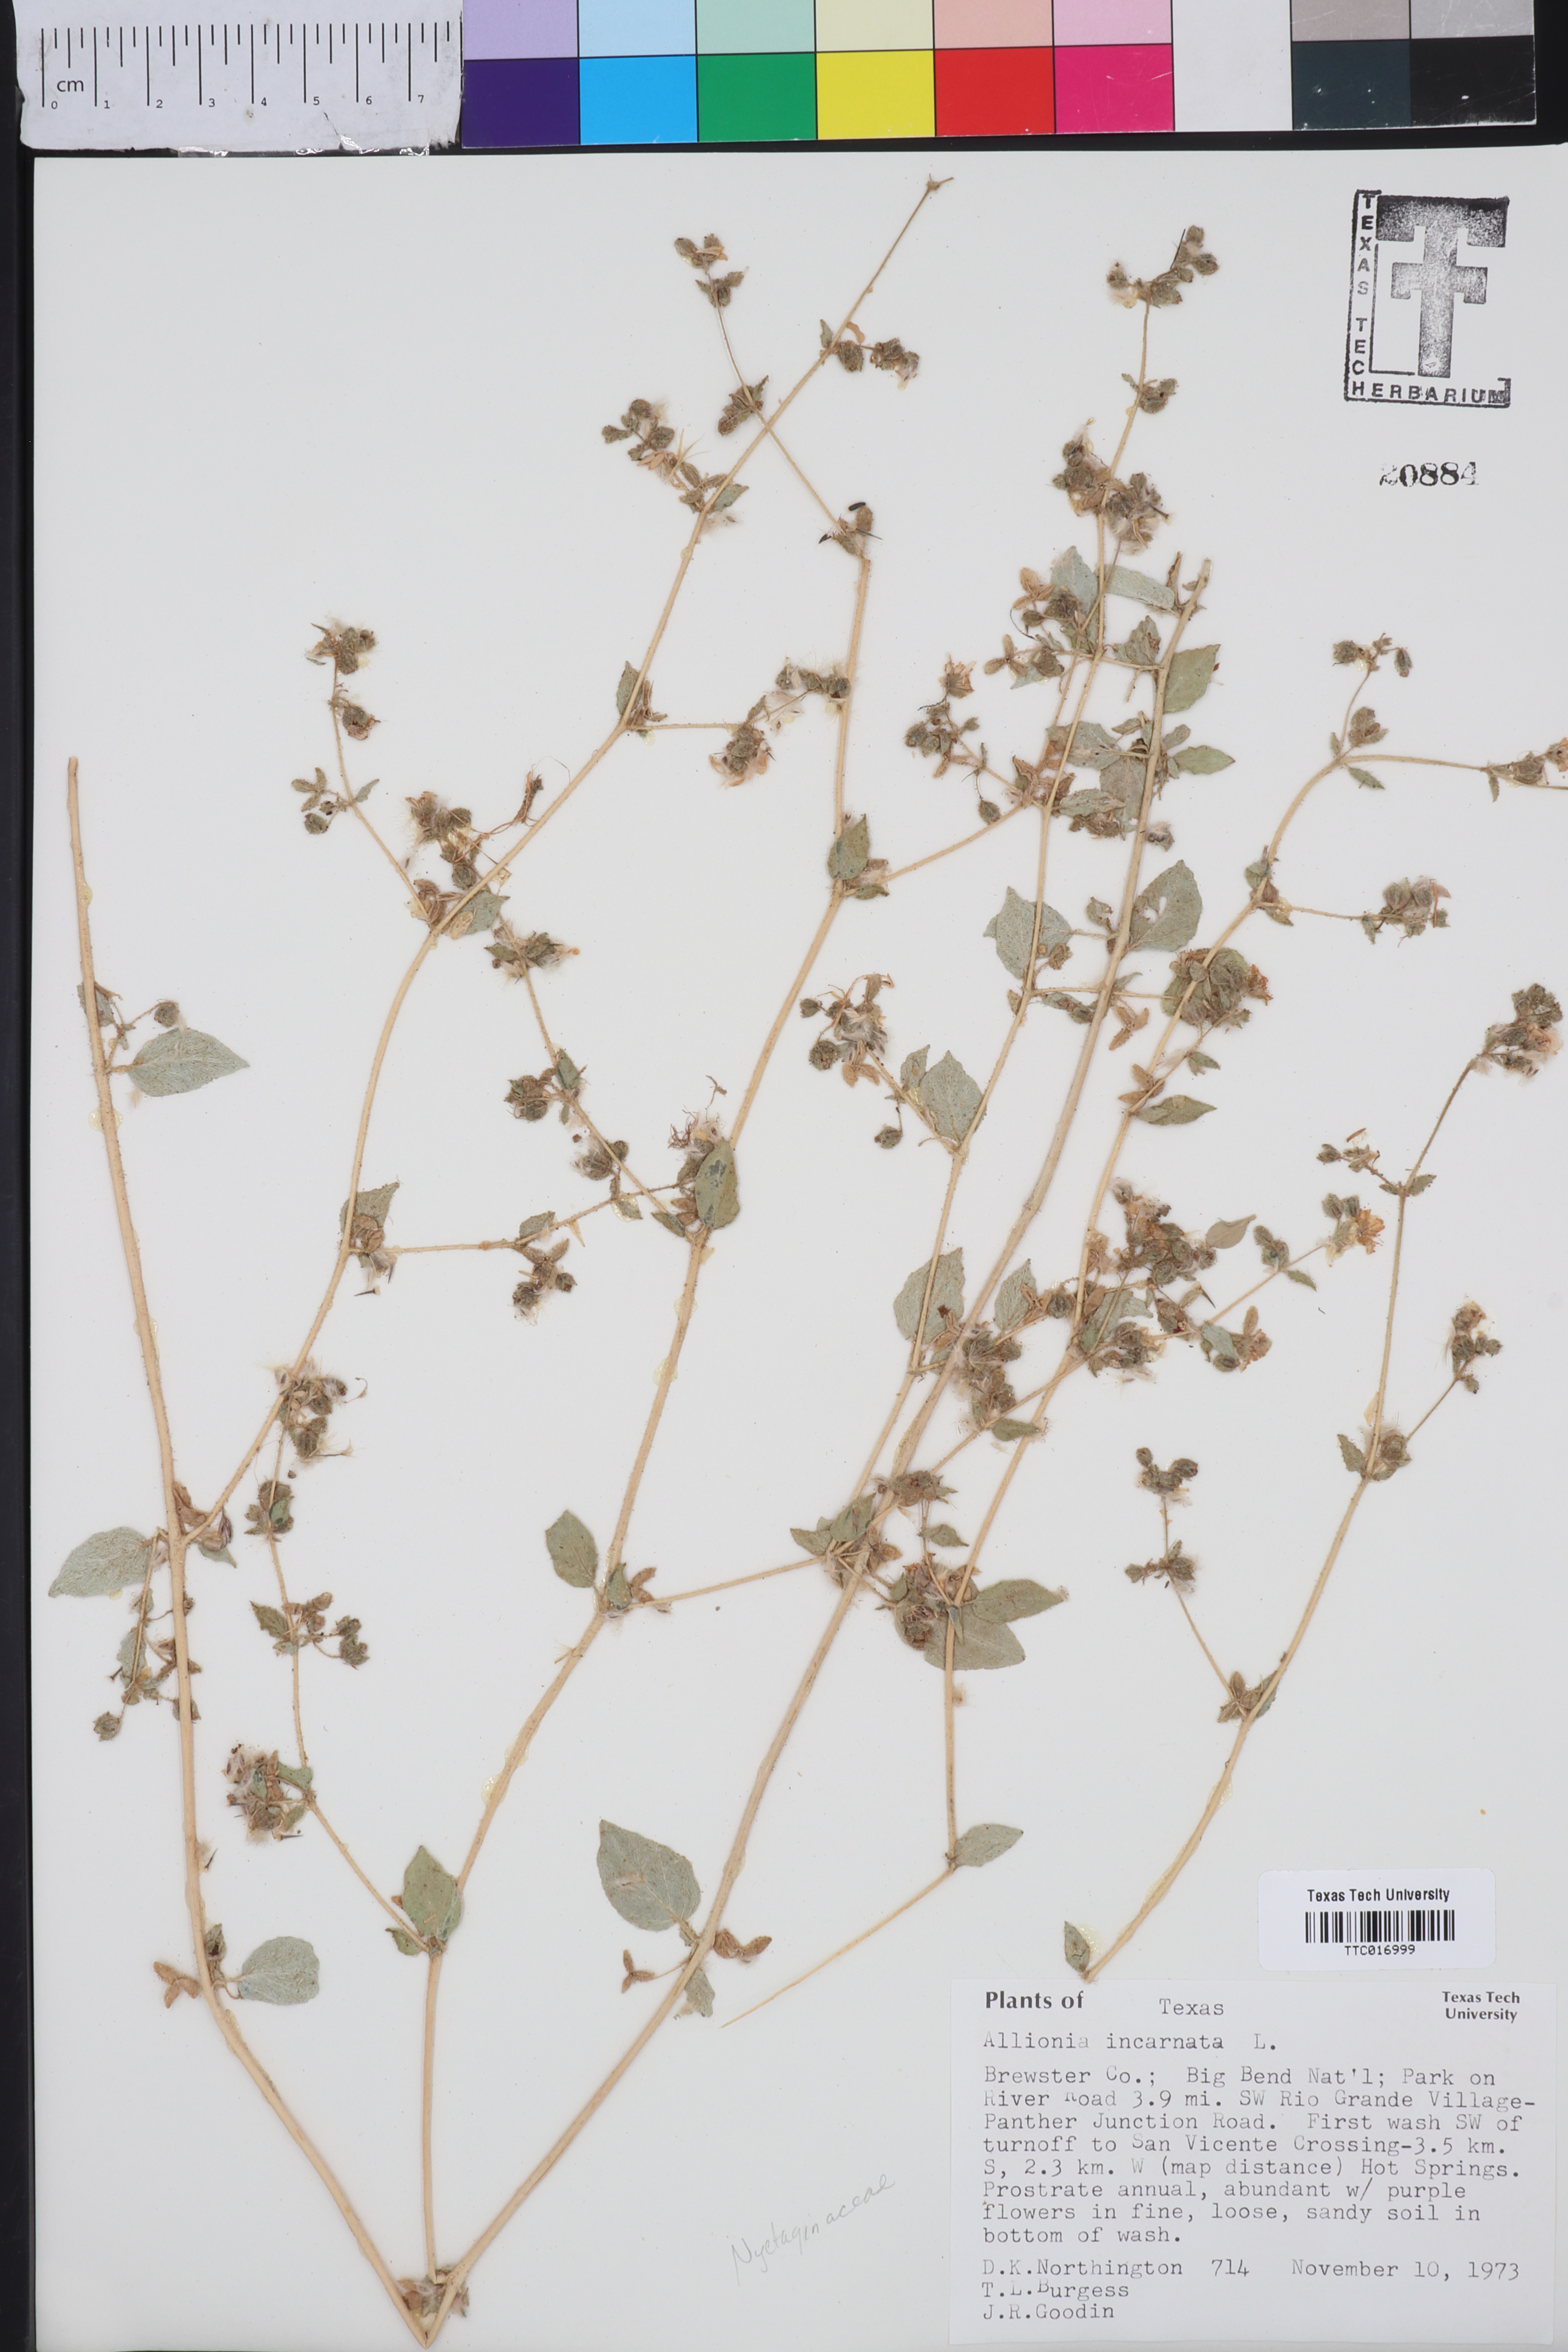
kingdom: Plantae
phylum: Tracheophyta
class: Magnoliopsida
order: Caryophyllales
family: Nyctaginaceae
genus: Allionia
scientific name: Allionia incarnata
